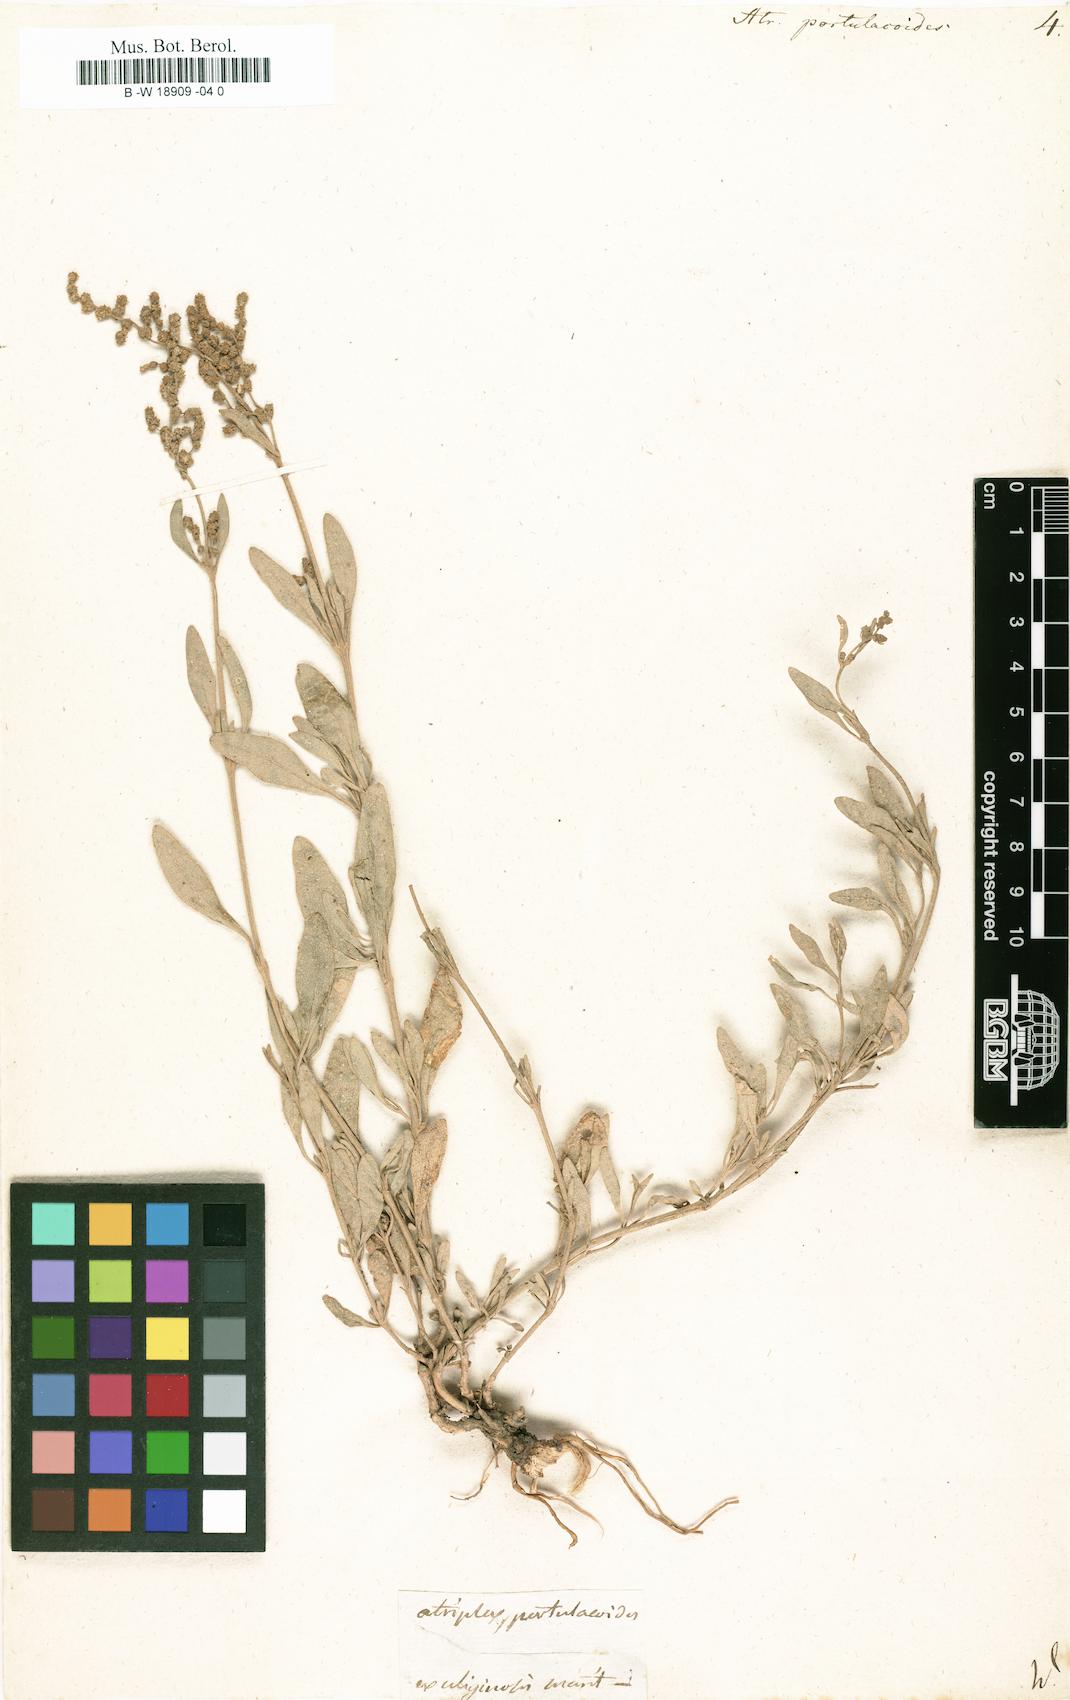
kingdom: Plantae
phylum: Tracheophyta
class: Magnoliopsida
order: Caryophyllales
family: Amaranthaceae
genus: Halimione
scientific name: Halimione portulacoides
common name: Sea-purslane
